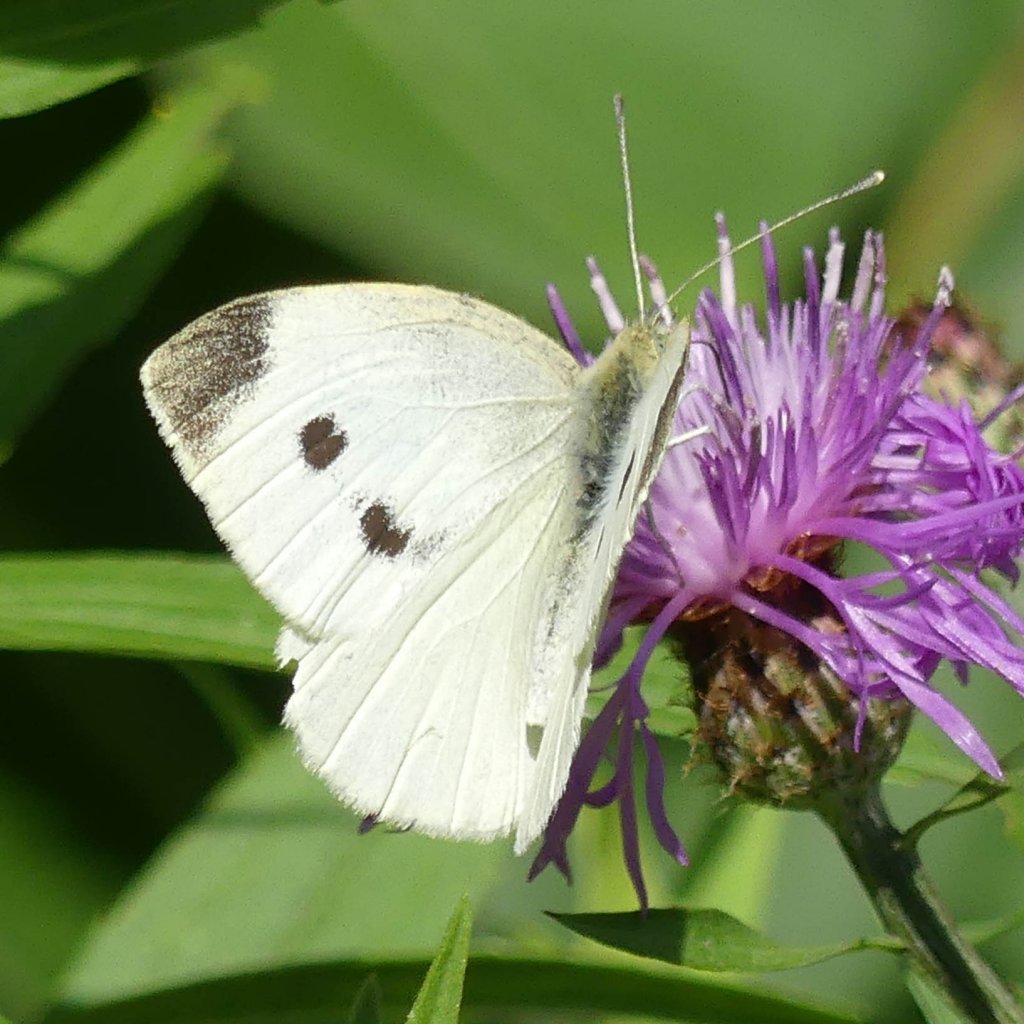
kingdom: Animalia
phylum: Arthropoda
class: Insecta
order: Lepidoptera
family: Pieridae
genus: Pieris
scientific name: Pieris rapae
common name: Cabbage White
